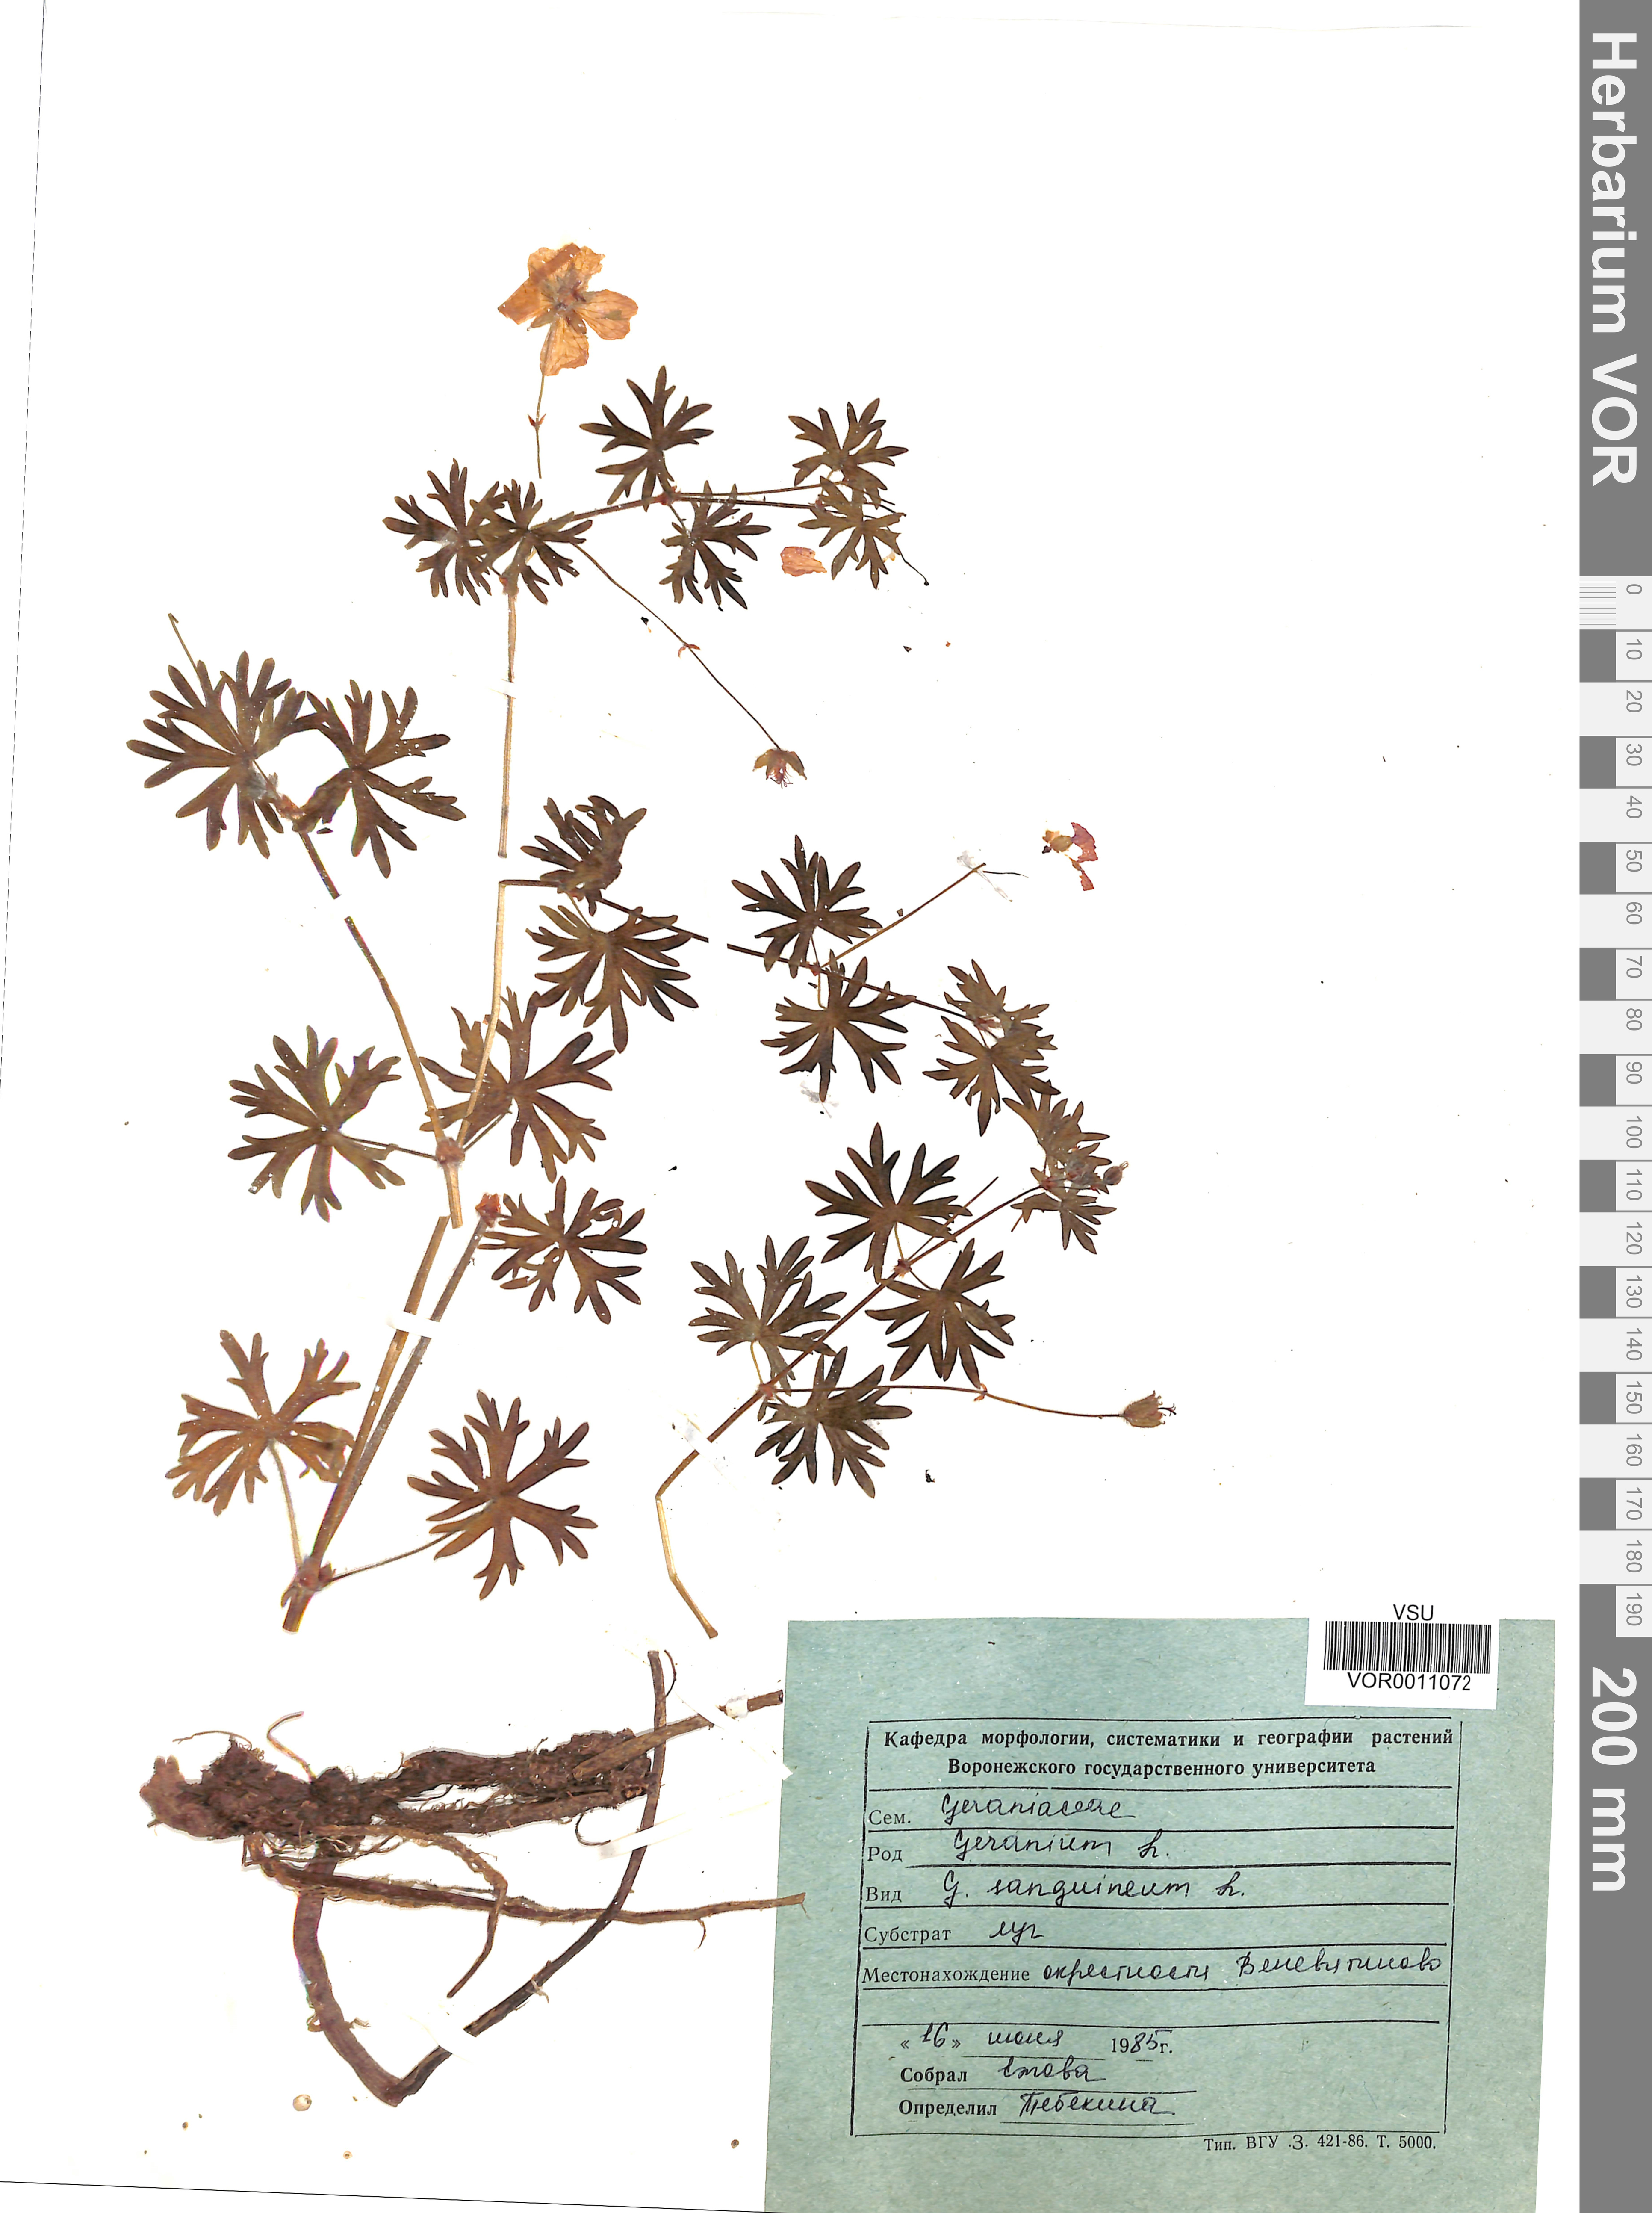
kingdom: Plantae
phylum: Tracheophyta
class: Magnoliopsida
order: Geraniales
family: Geraniaceae
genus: Geranium
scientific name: Geranium sanguineum
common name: Bloody crane's-bill
